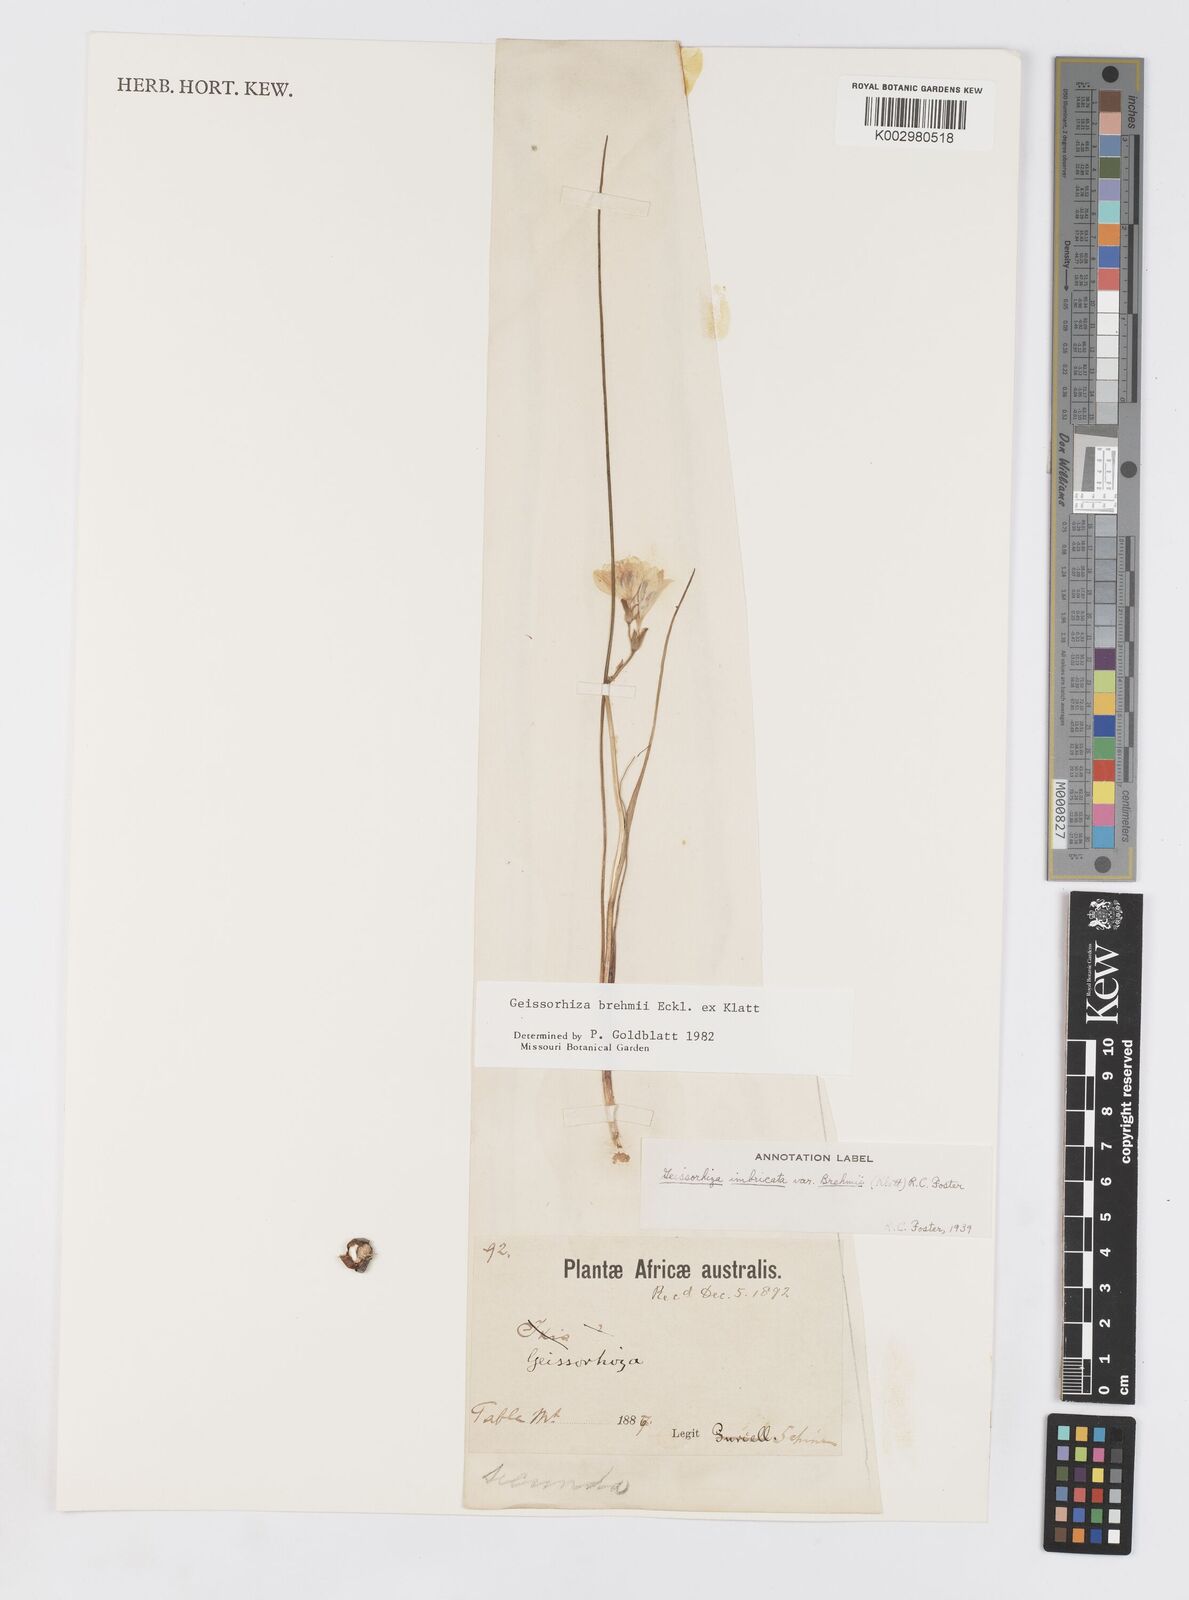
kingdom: Plantae
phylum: Tracheophyta
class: Liliopsida
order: Asparagales
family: Iridaceae
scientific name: Iridaceae
